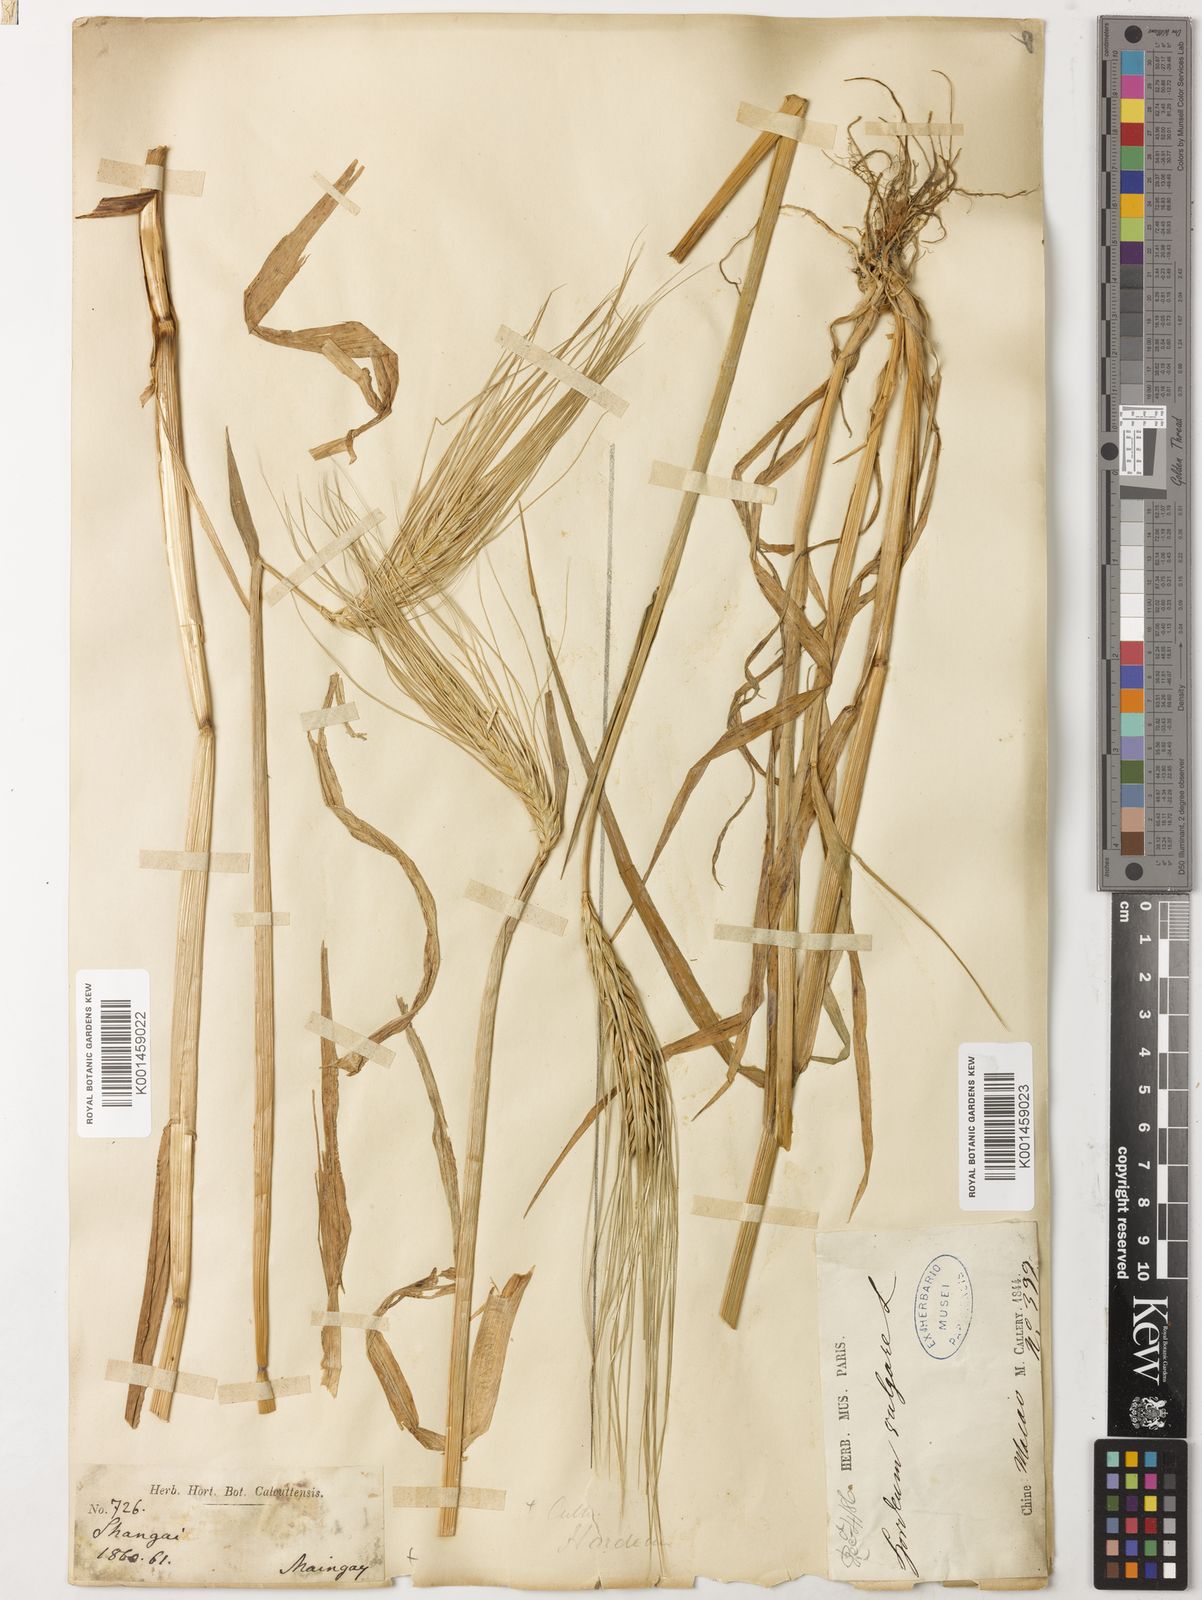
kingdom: Plantae
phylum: Tracheophyta
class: Liliopsida
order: Poales
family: Poaceae
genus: Hordeum
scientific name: Hordeum vulgare
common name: Common barley
